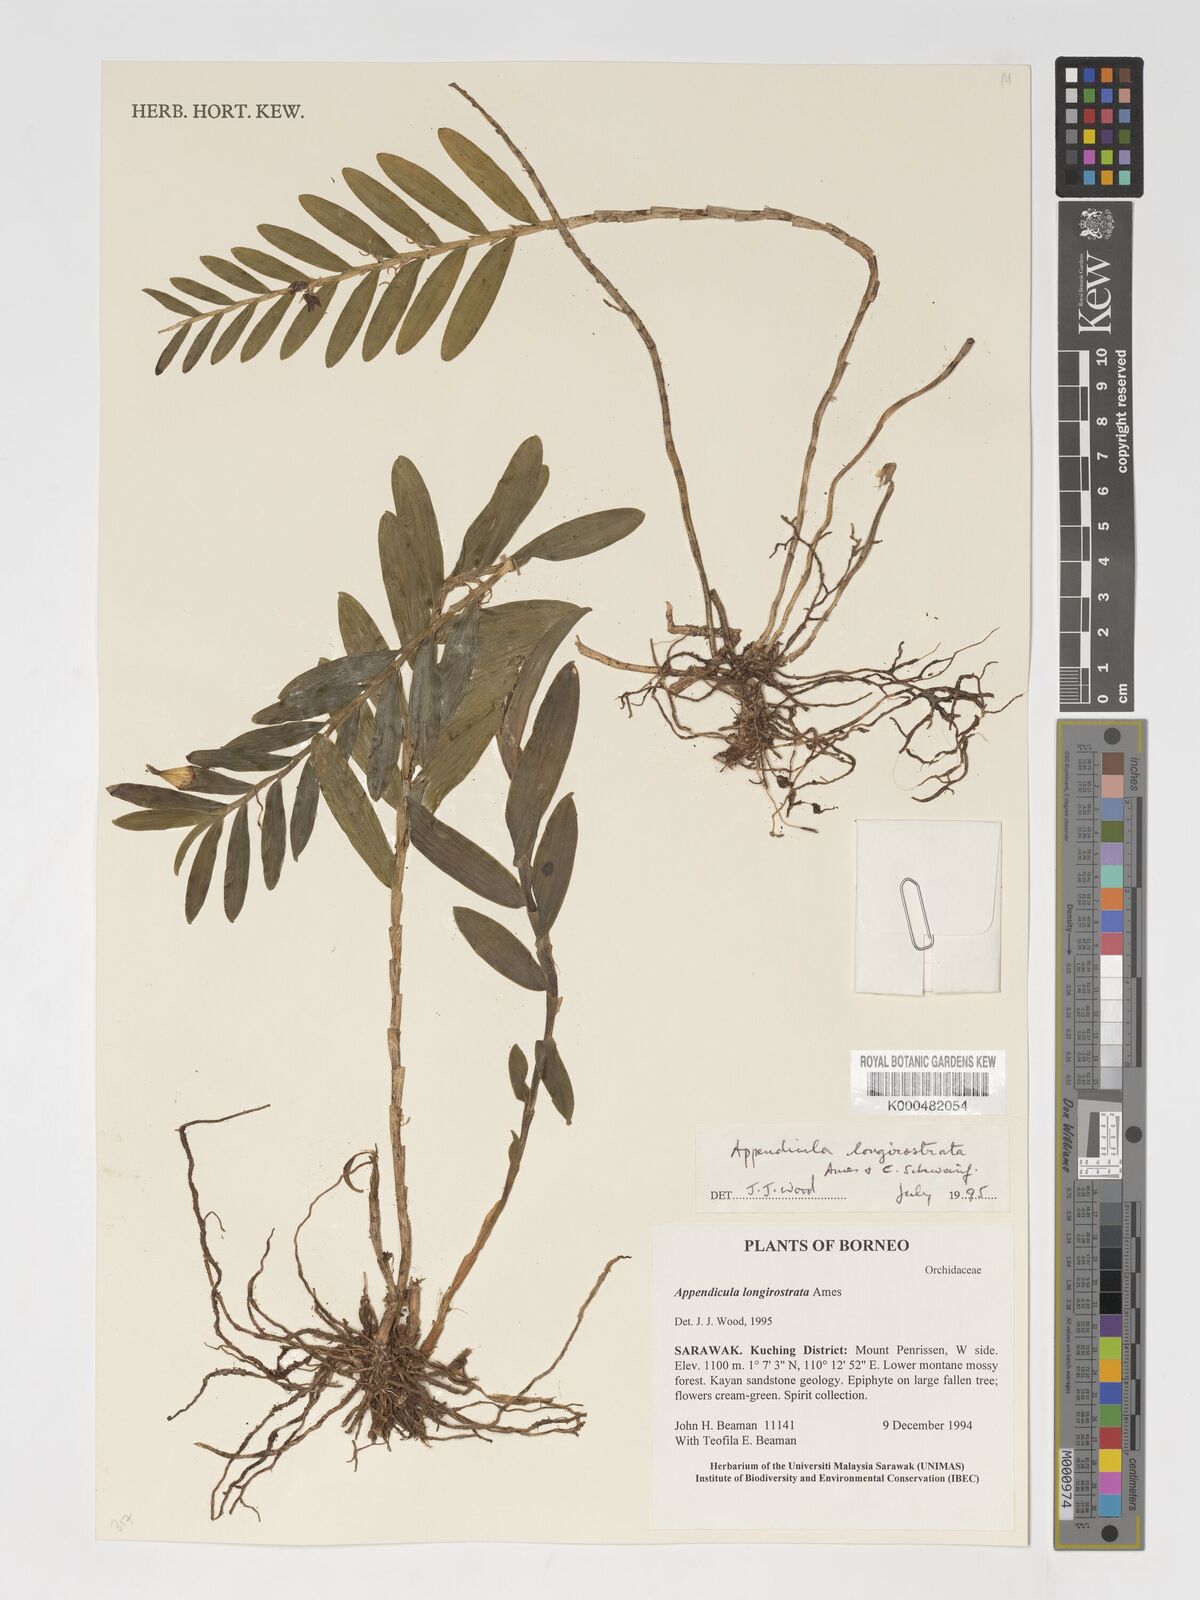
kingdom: Plantae
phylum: Tracheophyta
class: Liliopsida
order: Asparagales
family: Orchidaceae
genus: Appendicula
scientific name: Appendicula longirostrata
